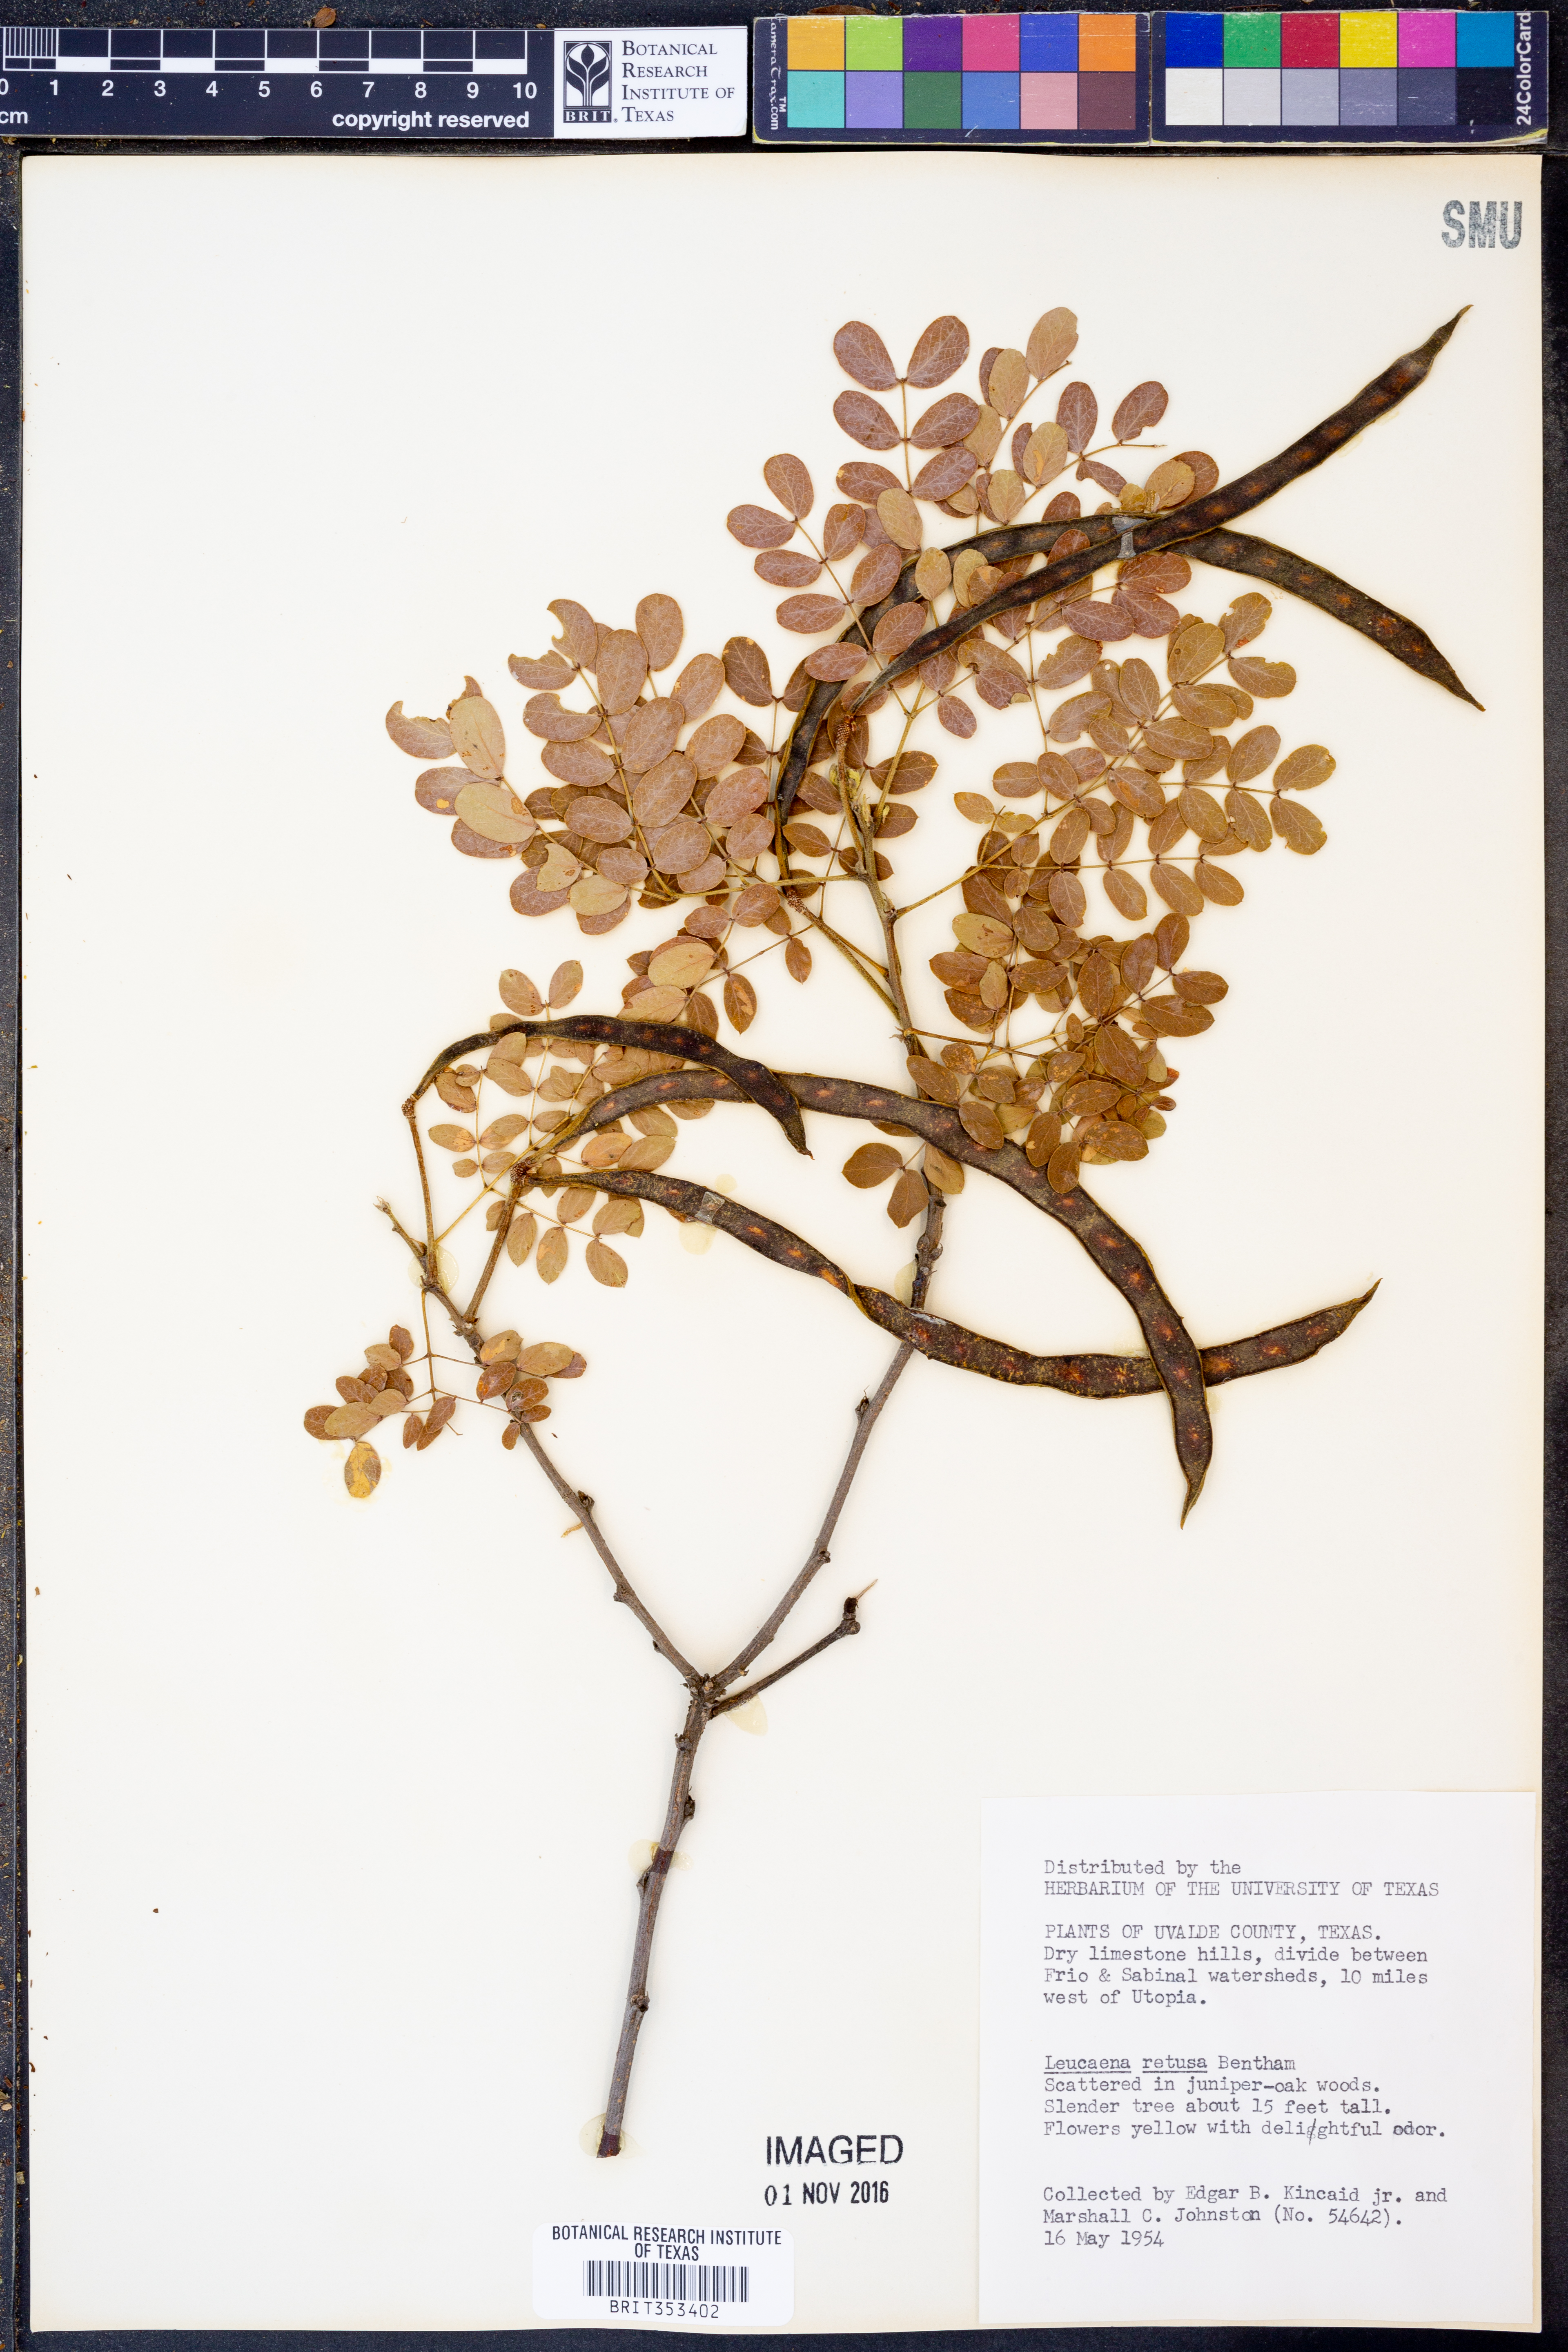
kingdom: Plantae
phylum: Tracheophyta
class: Magnoliopsida
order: Fabales
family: Fabaceae
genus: Leucaena
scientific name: Leucaena retusa
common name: Littleleaf leadtree
